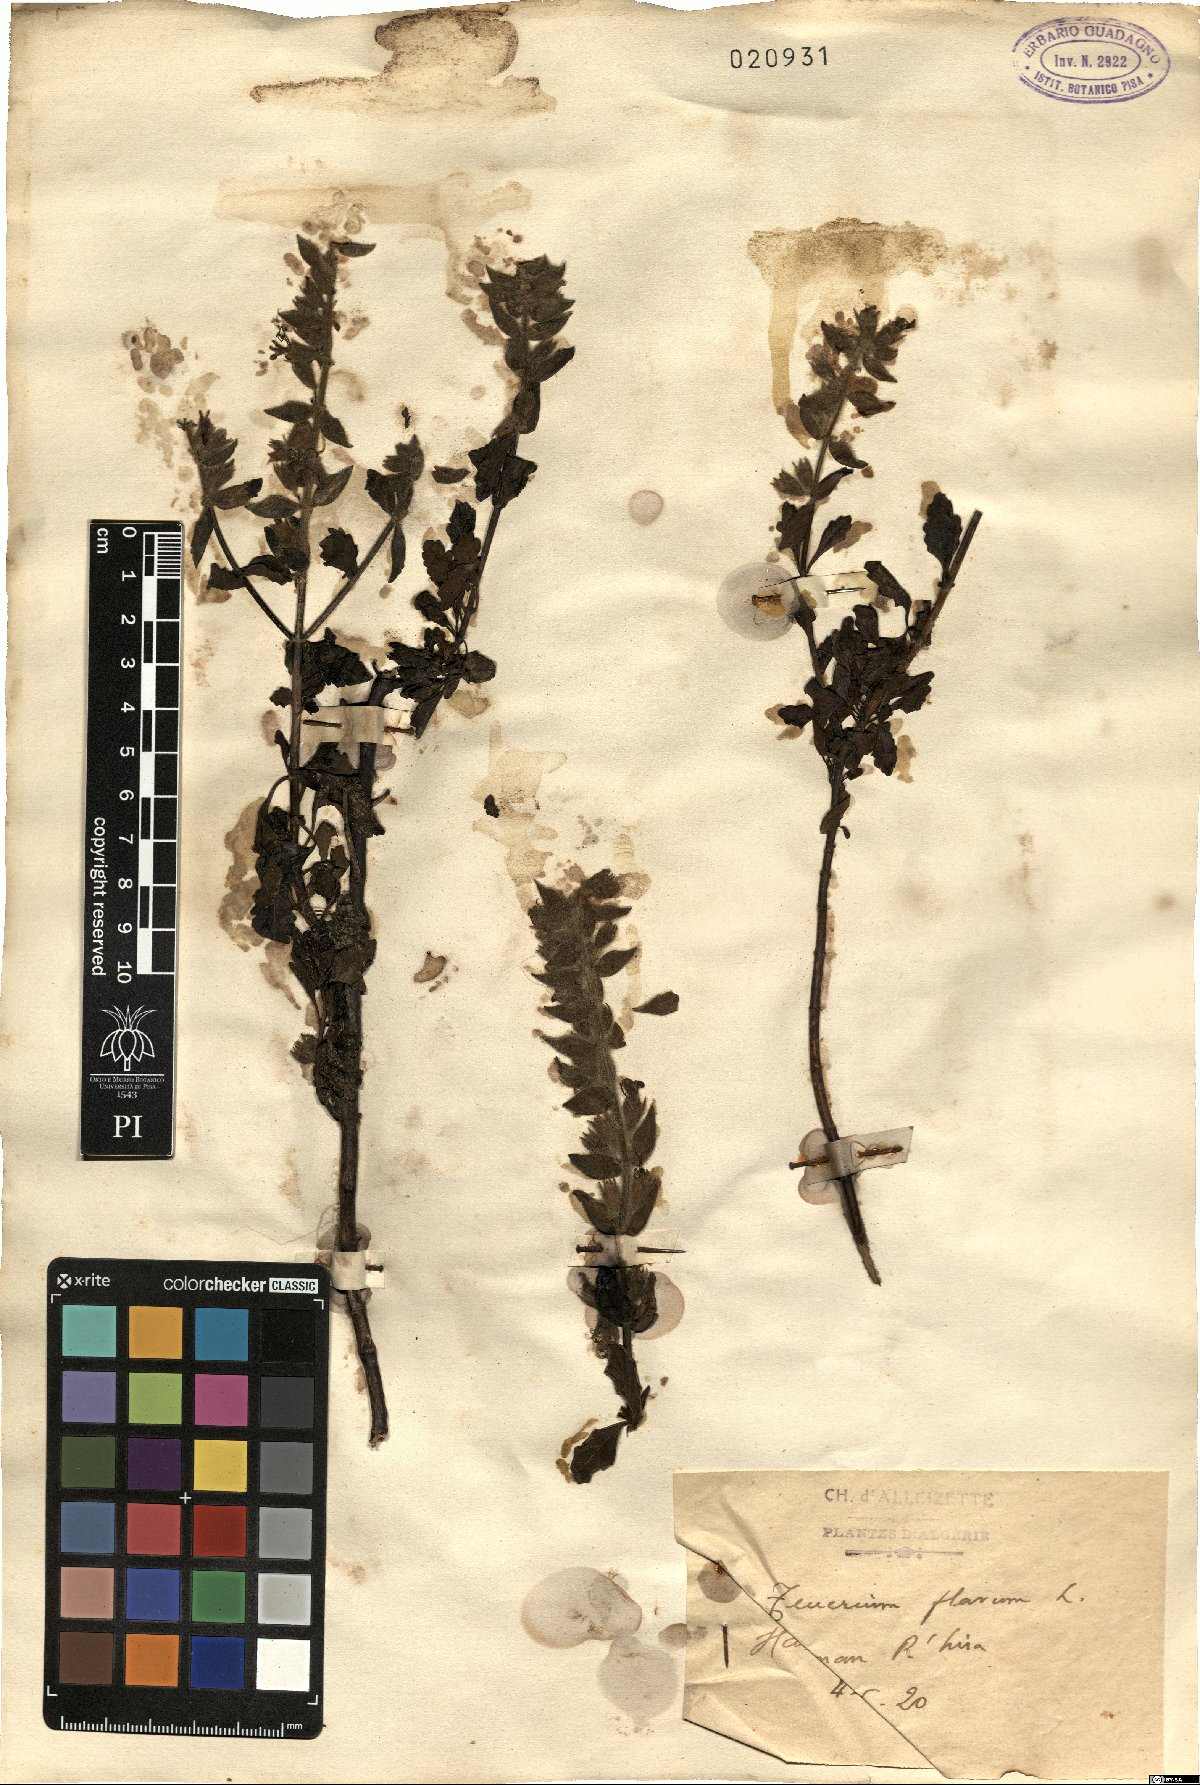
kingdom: Plantae
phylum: Tracheophyta
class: Magnoliopsida
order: Lamiales
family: Lamiaceae
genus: Teucrium
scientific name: Teucrium flavum
